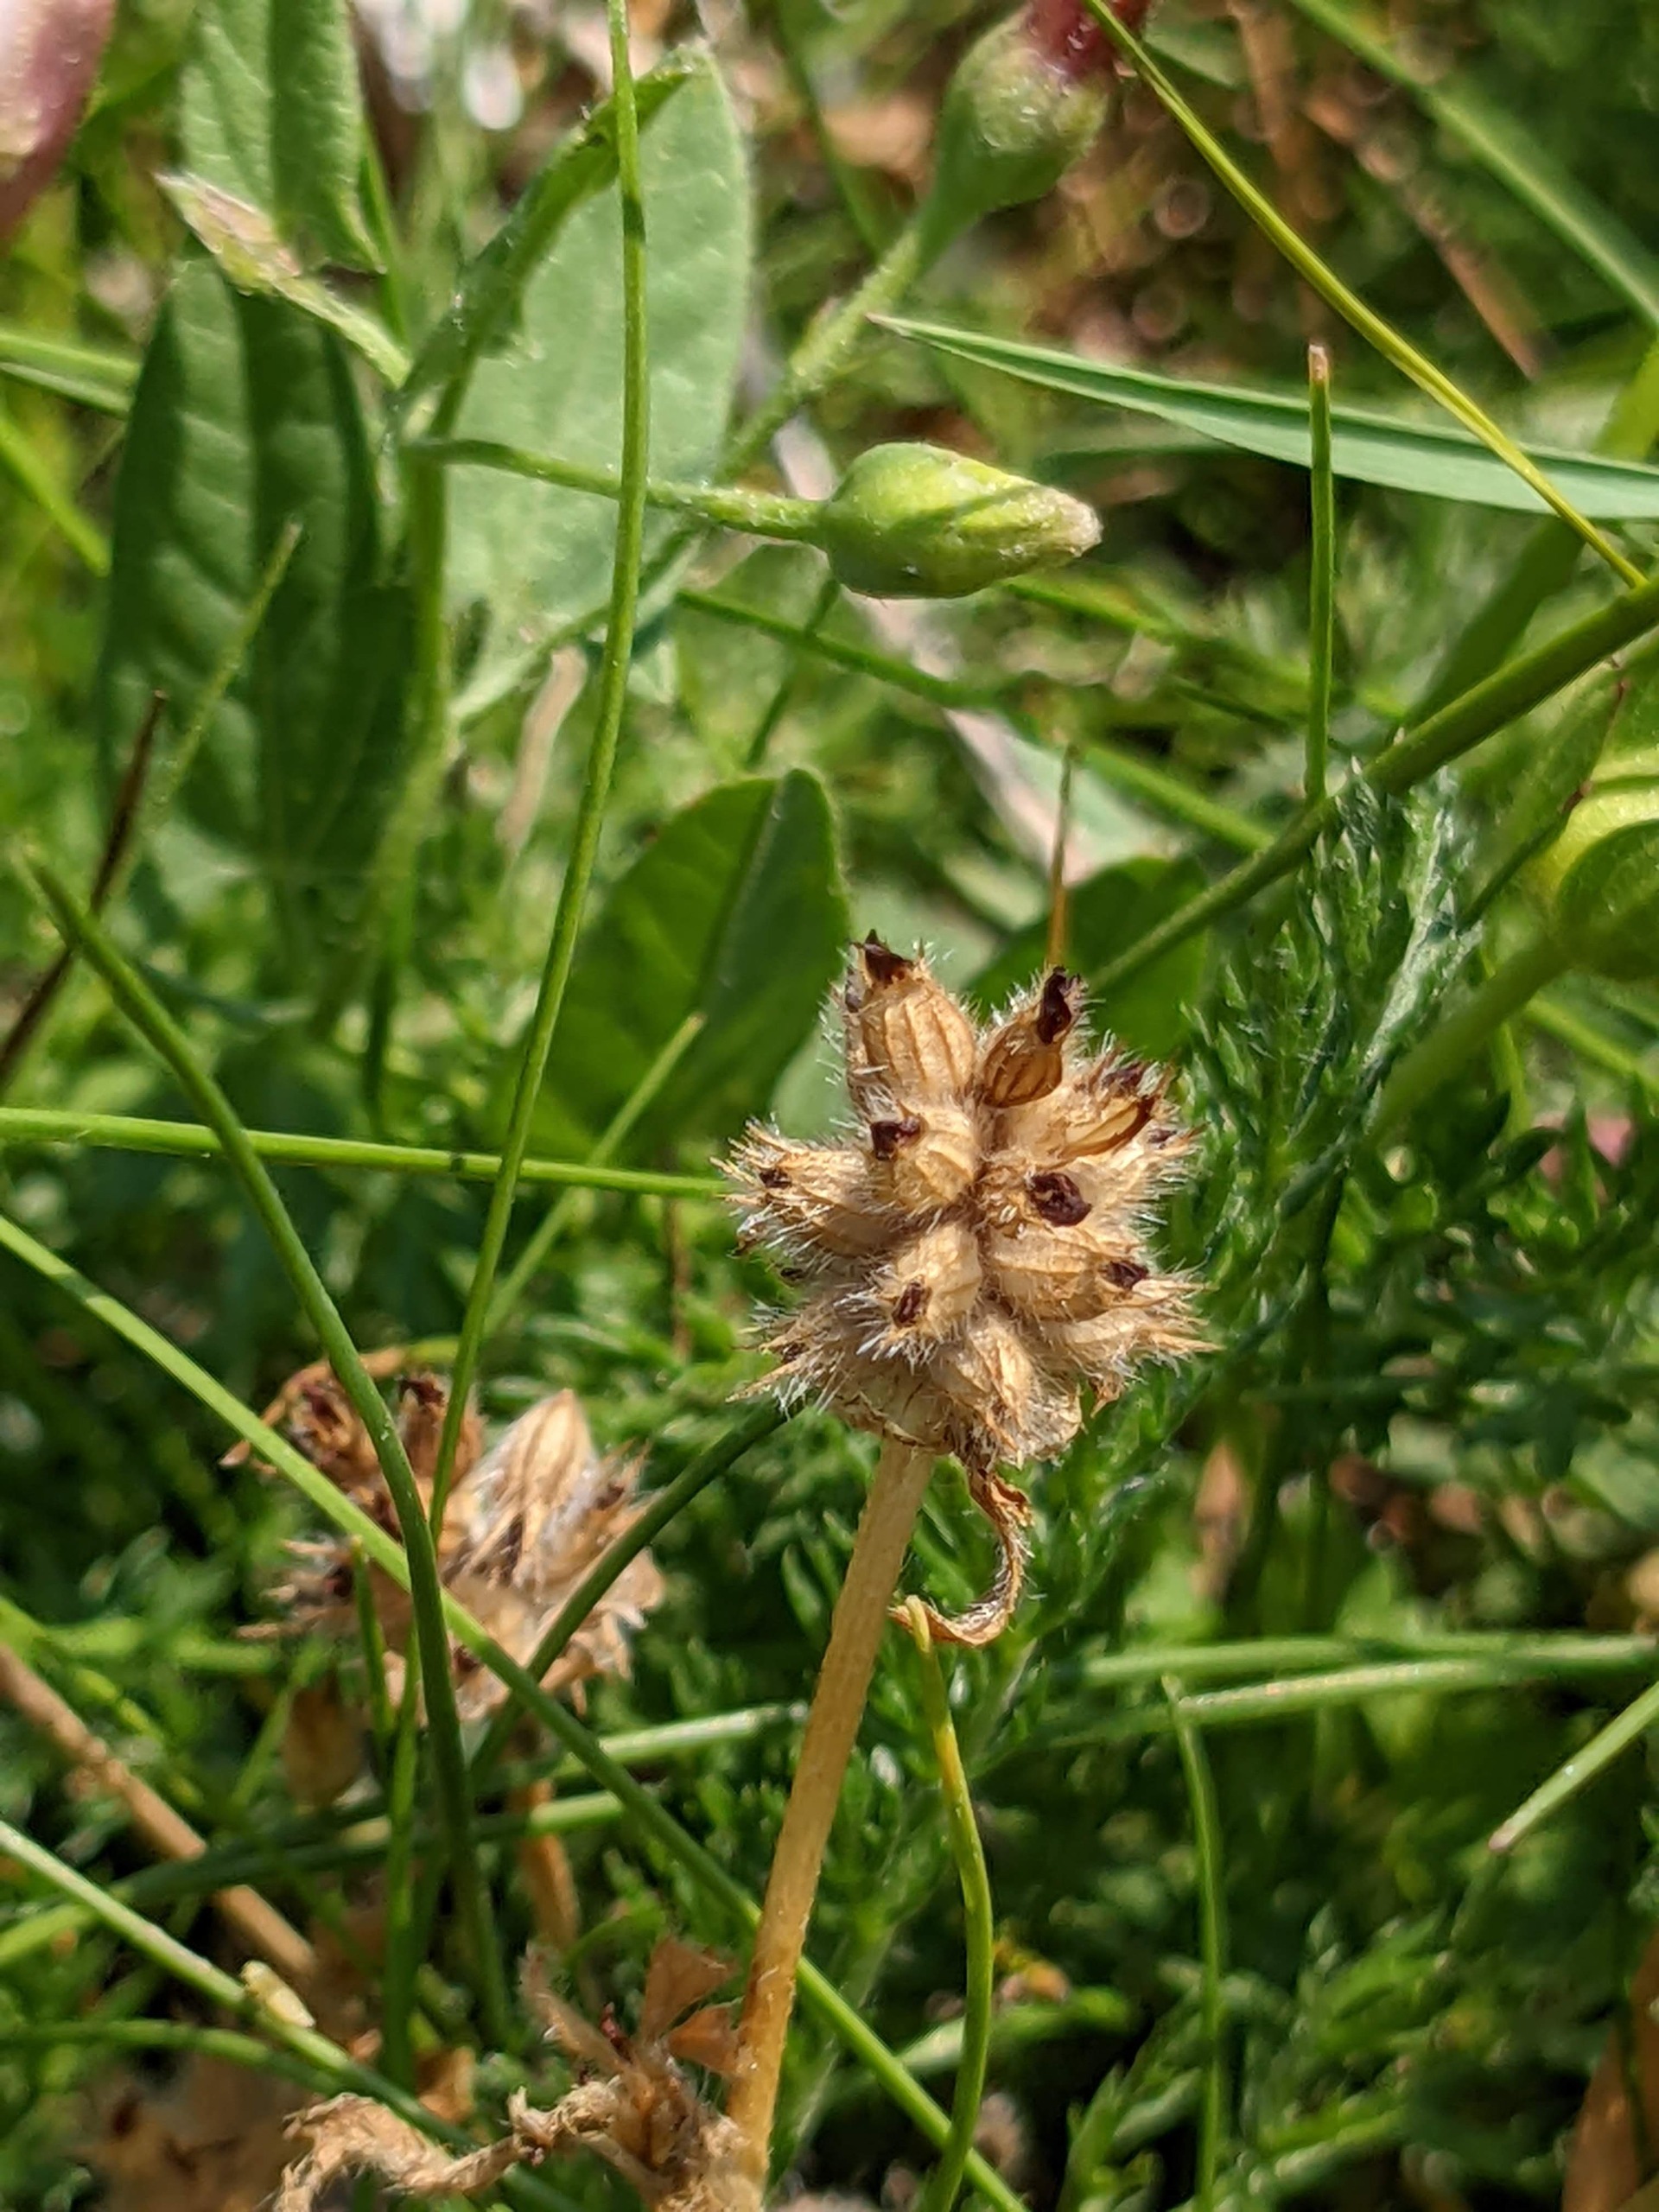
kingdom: Plantae
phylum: Tracheophyta
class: Magnoliopsida
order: Fabales
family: Fabaceae
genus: Trifolium
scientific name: Trifolium striatum
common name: Stribet kløver
